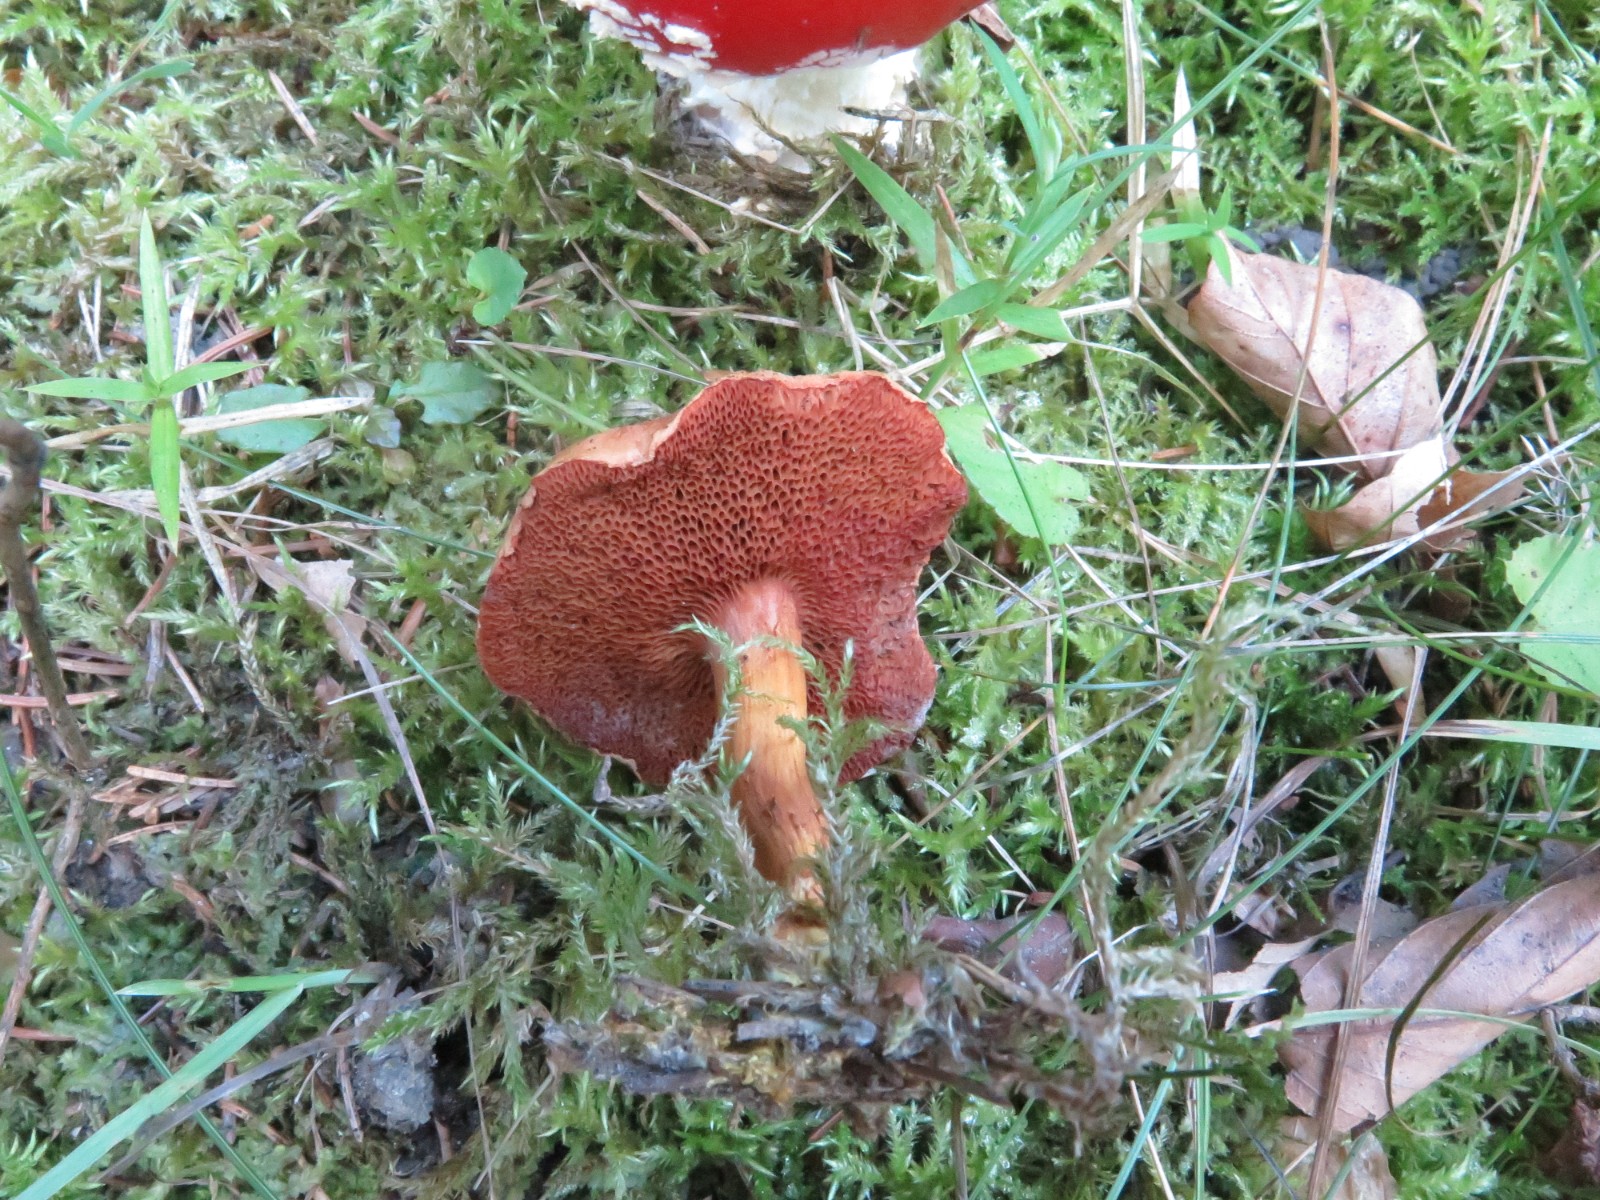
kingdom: Fungi
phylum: Basidiomycota
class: Agaricomycetes
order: Boletales
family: Boletaceae
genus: Chalciporus
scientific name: Chalciporus piperatus
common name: peberrørhat
